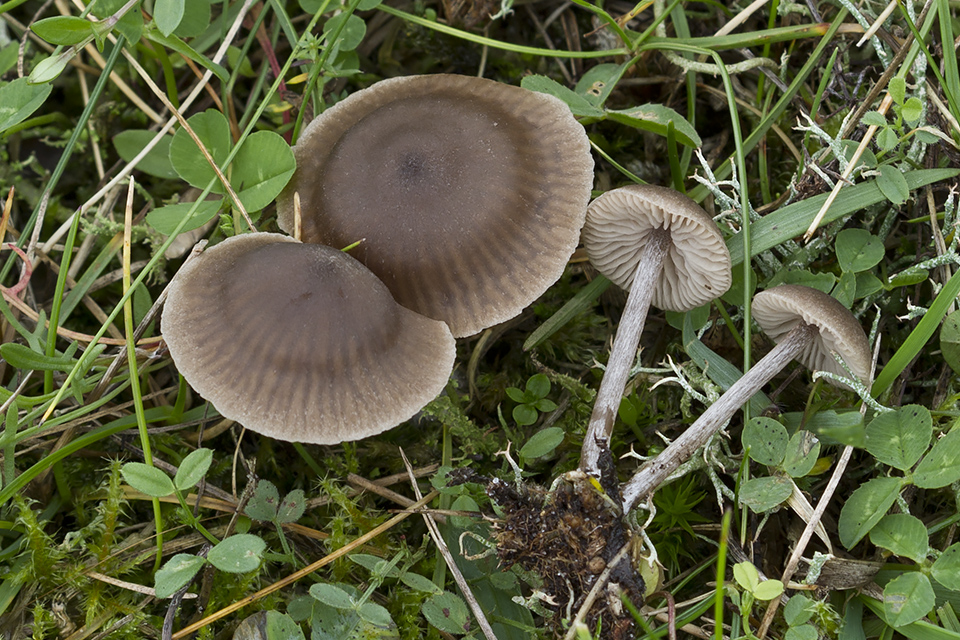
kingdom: Fungi
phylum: Basidiomycota
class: Agaricomycetes
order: Agaricales
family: Entolomataceae
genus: Entoloma
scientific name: Entoloma ortonii
